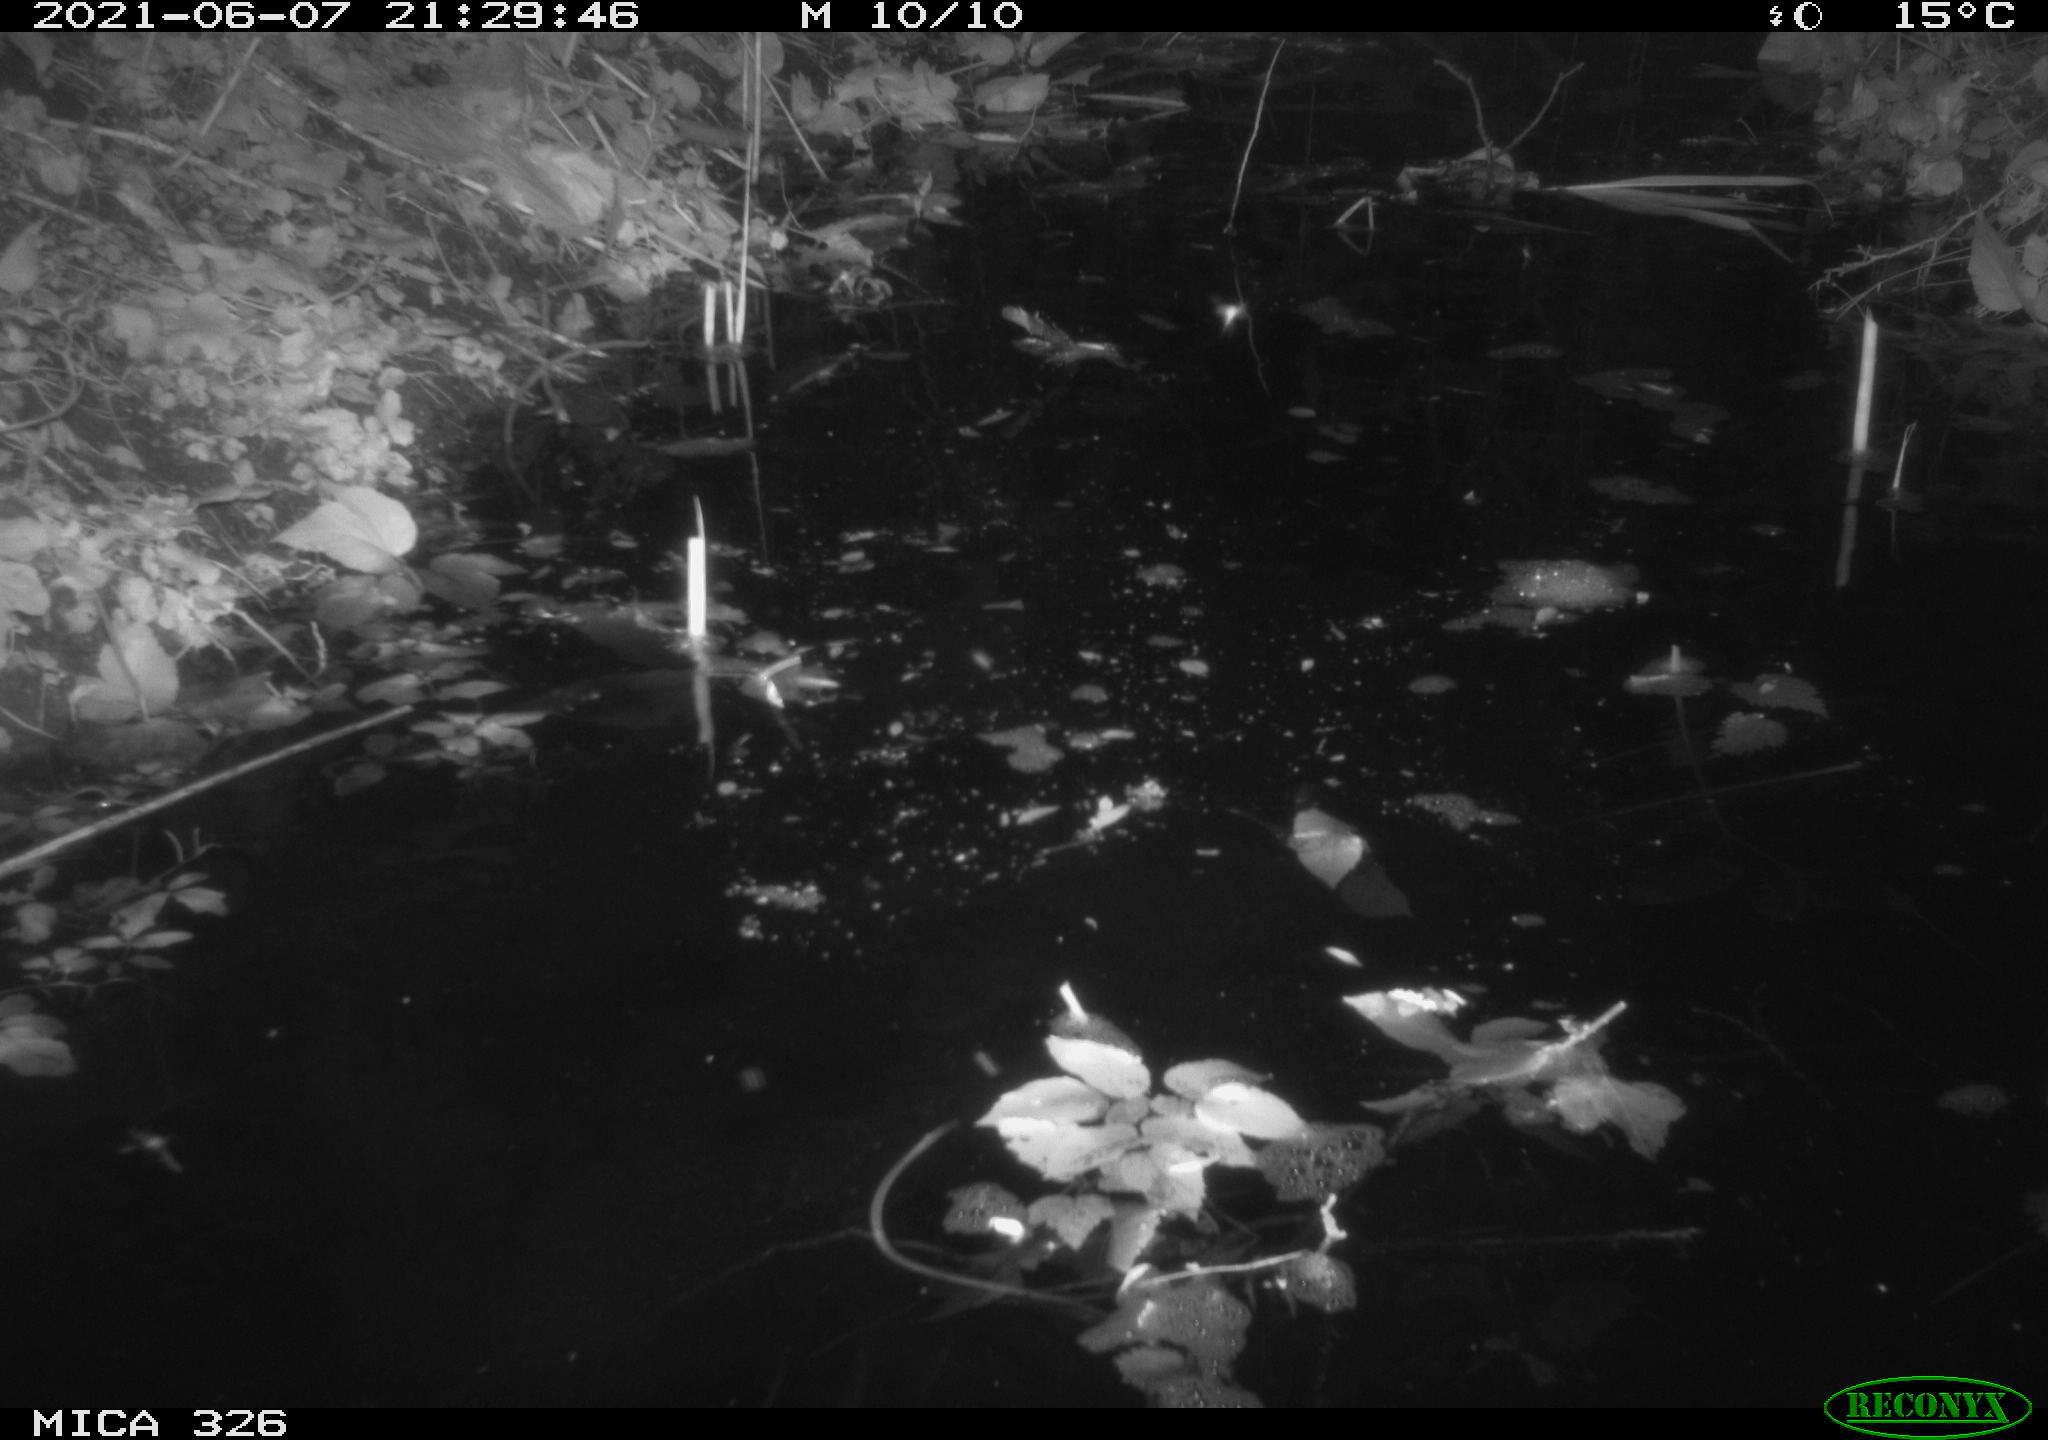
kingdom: Animalia
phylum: Chordata
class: Aves
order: Anseriformes
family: Anatidae
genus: Anas
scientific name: Anas platyrhynchos
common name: Mallard
